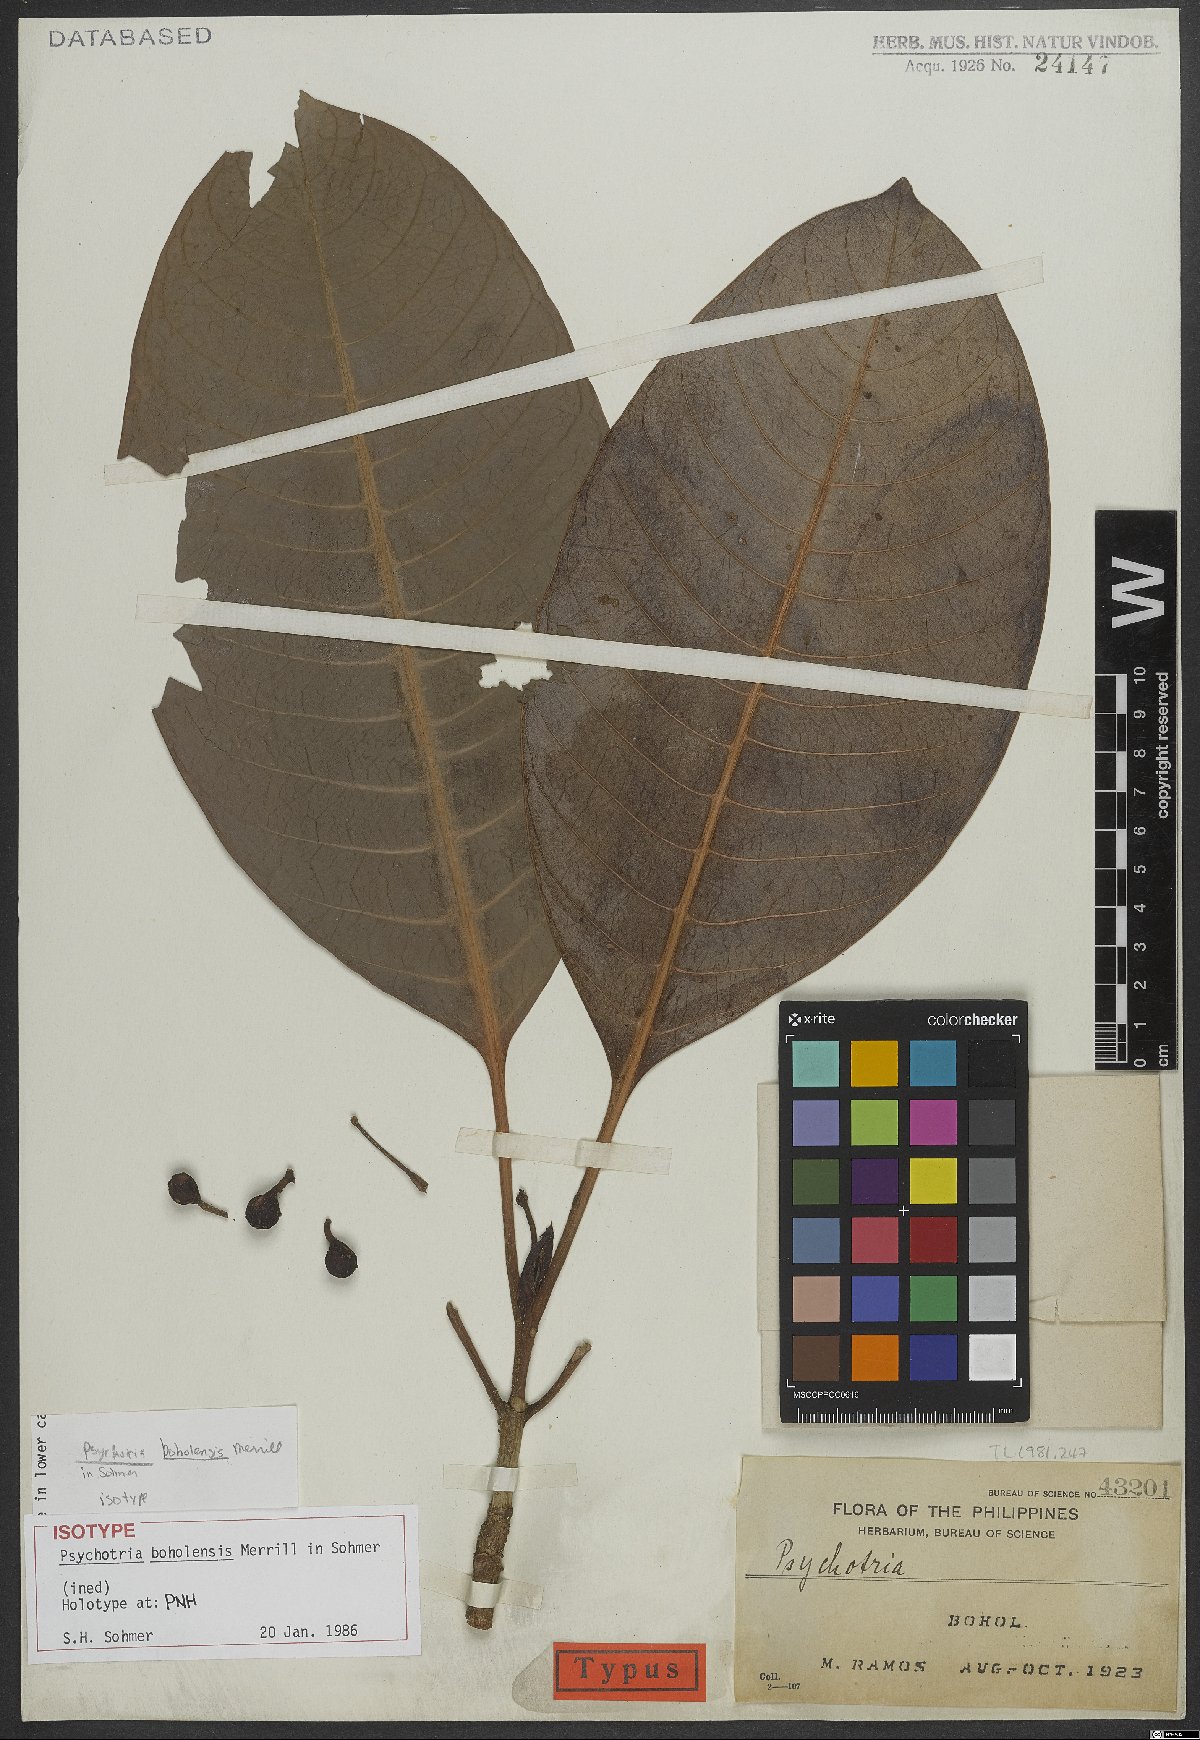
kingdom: Plantae
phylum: Tracheophyta
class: Magnoliopsida
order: Gentianales
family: Rubiaceae
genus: Psychotria
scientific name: Psychotria boholensis
